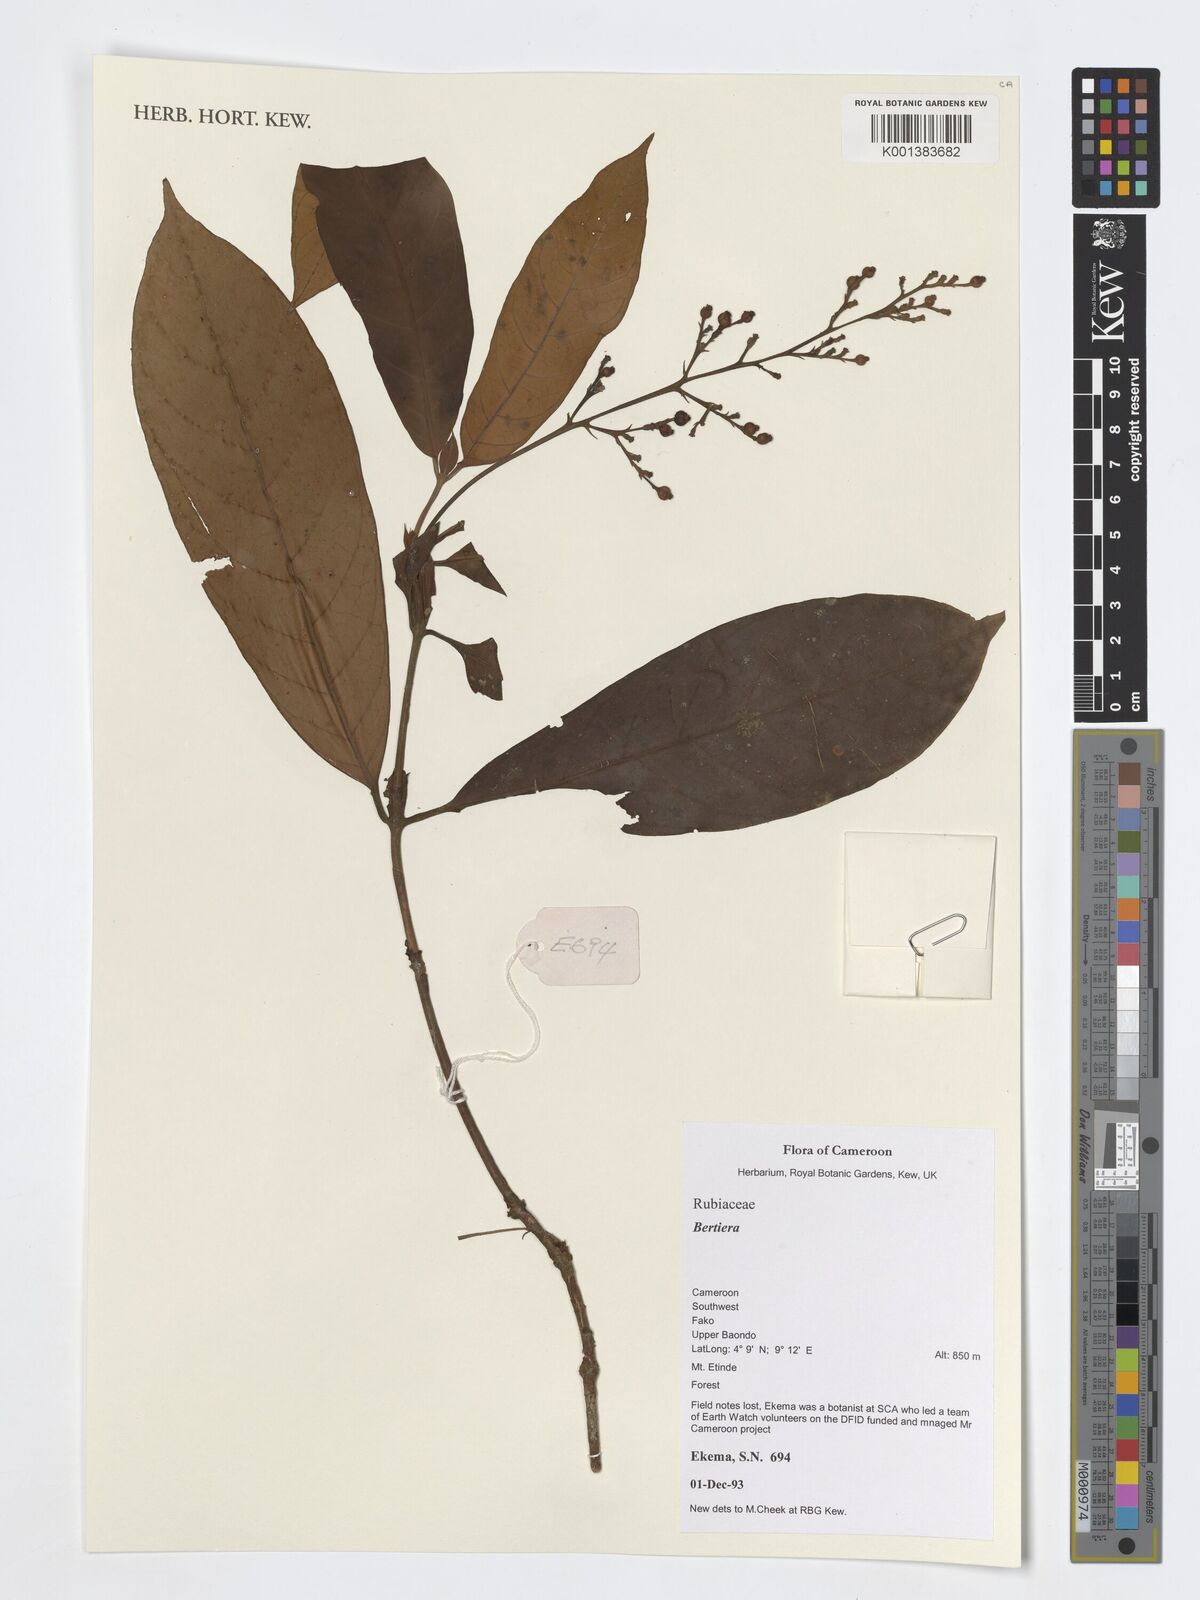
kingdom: Plantae
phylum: Tracheophyta
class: Magnoliopsida
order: Gentianales
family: Rubiaceae
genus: Bertiera
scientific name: Bertiera
